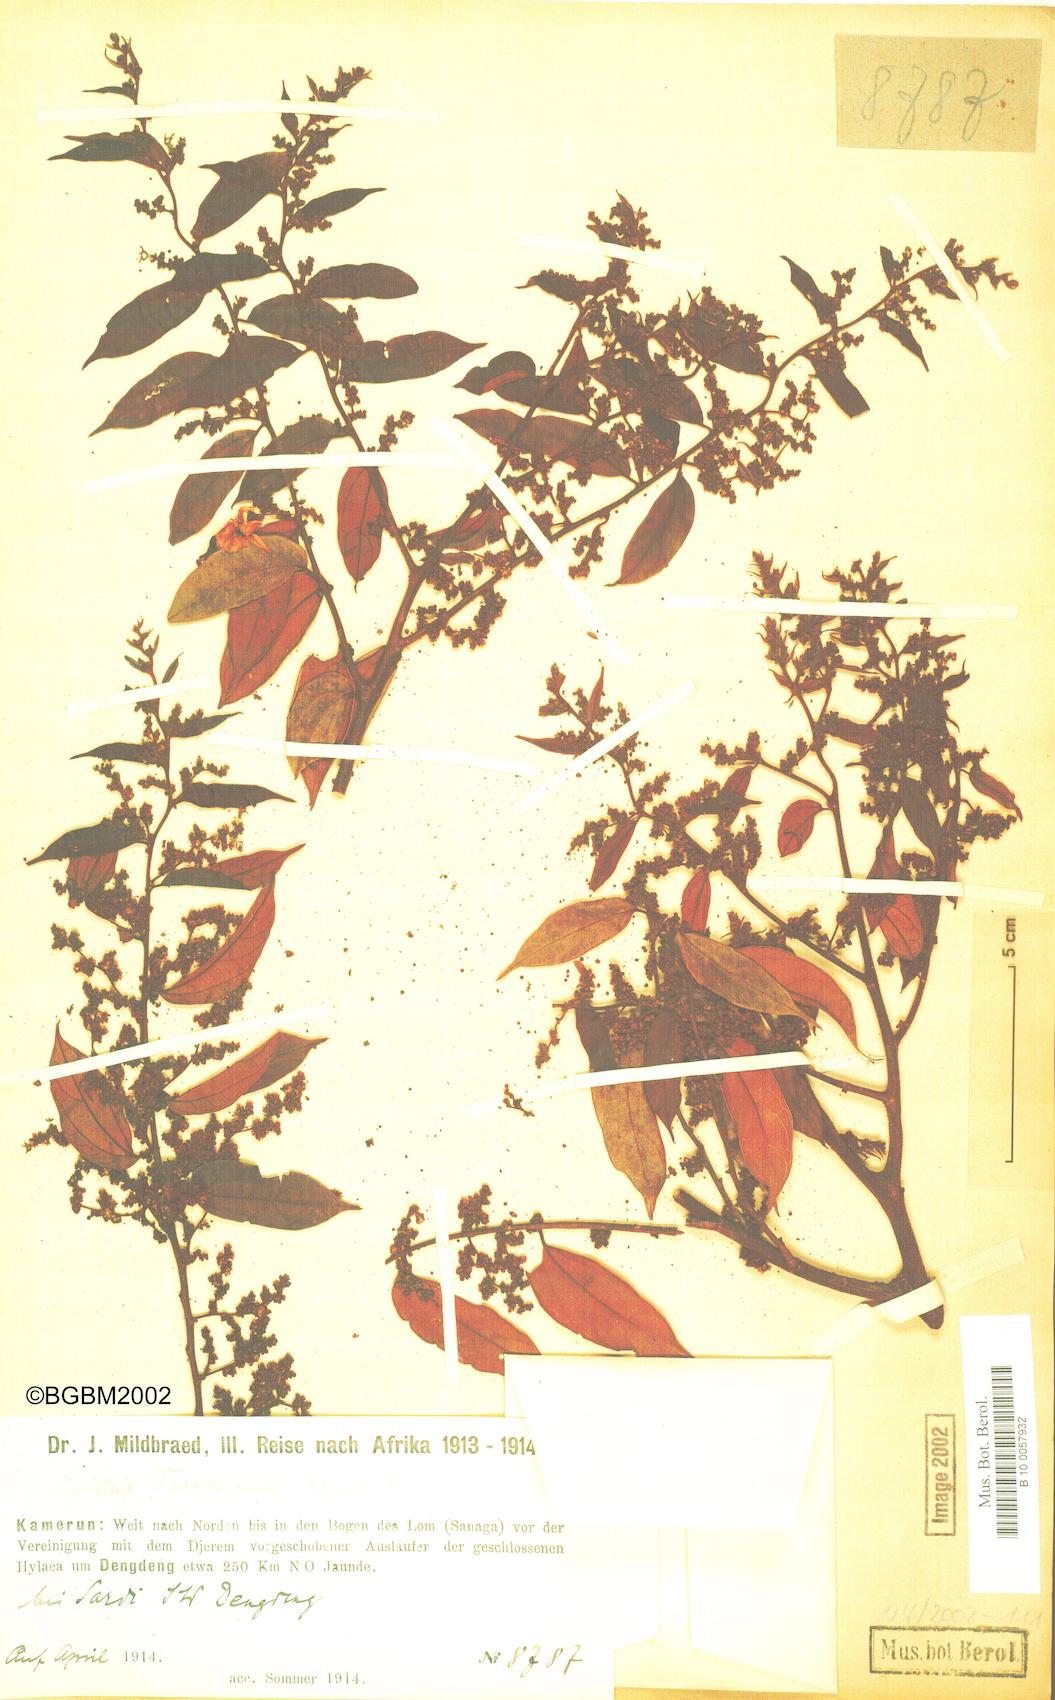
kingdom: Plantae
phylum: Tracheophyta
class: Magnoliopsida
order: Rosales
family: Cannabaceae
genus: Celtis
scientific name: Celtis tessmannii
